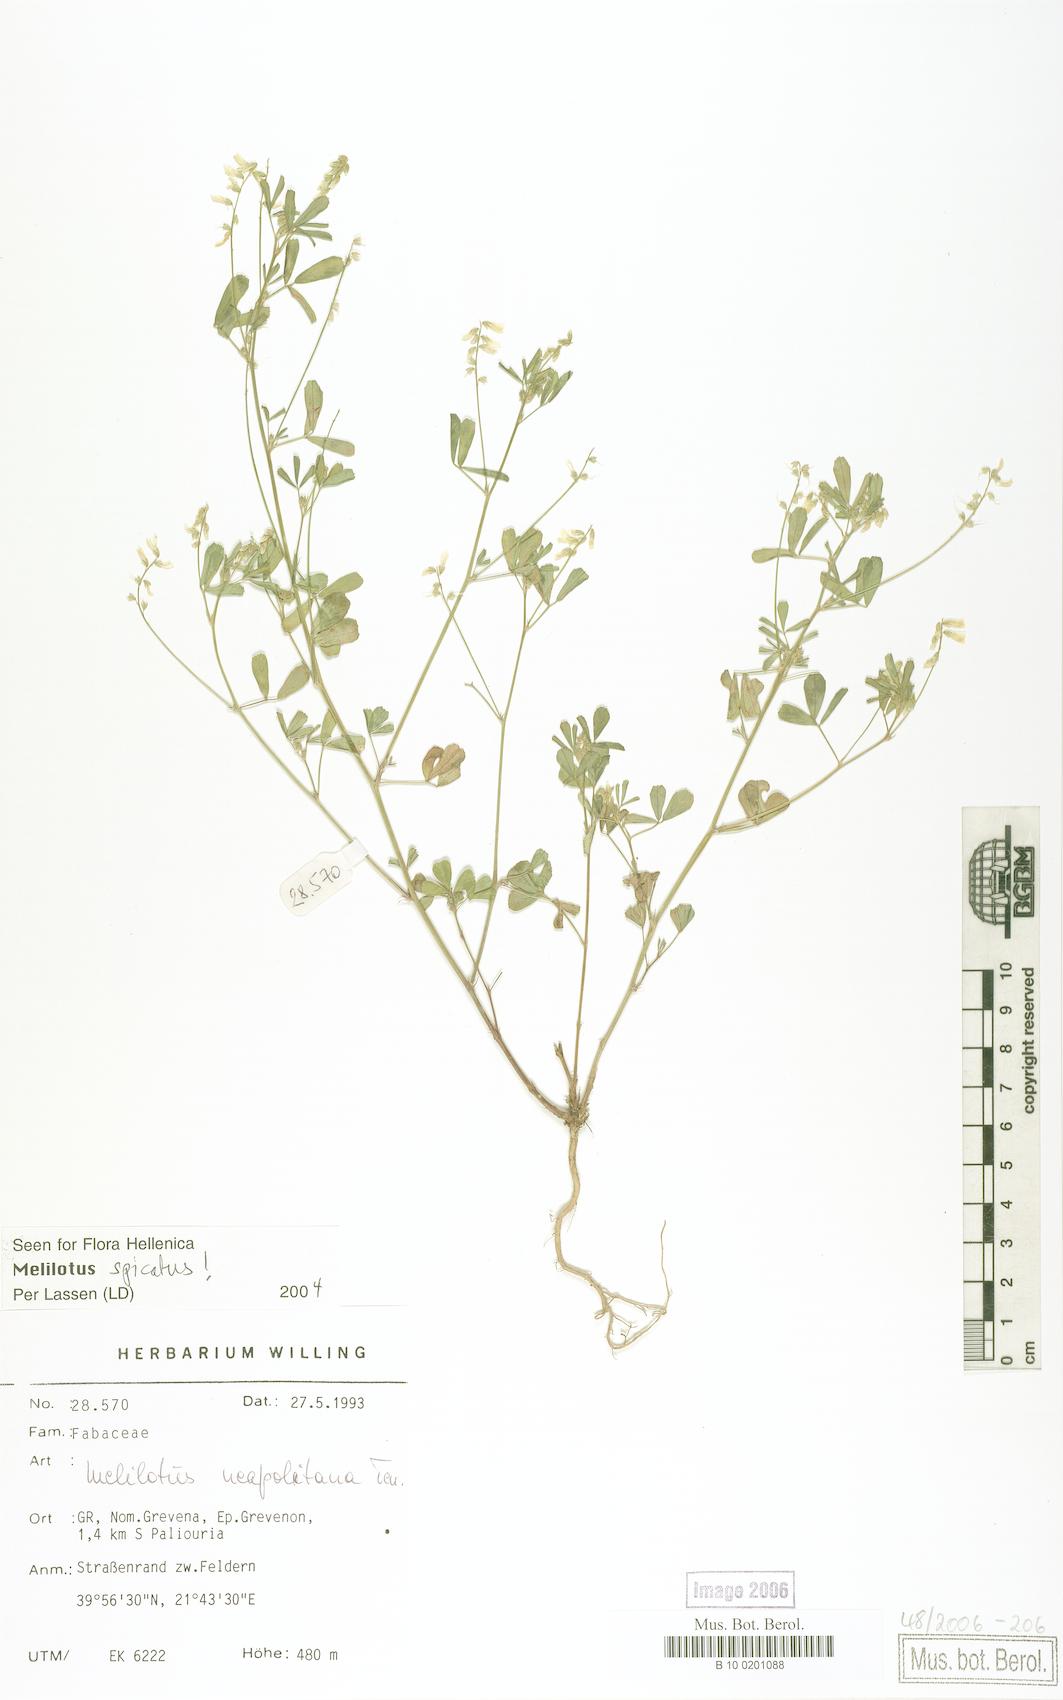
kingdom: Plantae
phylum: Tracheophyta
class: Magnoliopsida
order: Fabales
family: Fabaceae
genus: Melilotus
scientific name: Melilotus neapolitanus
